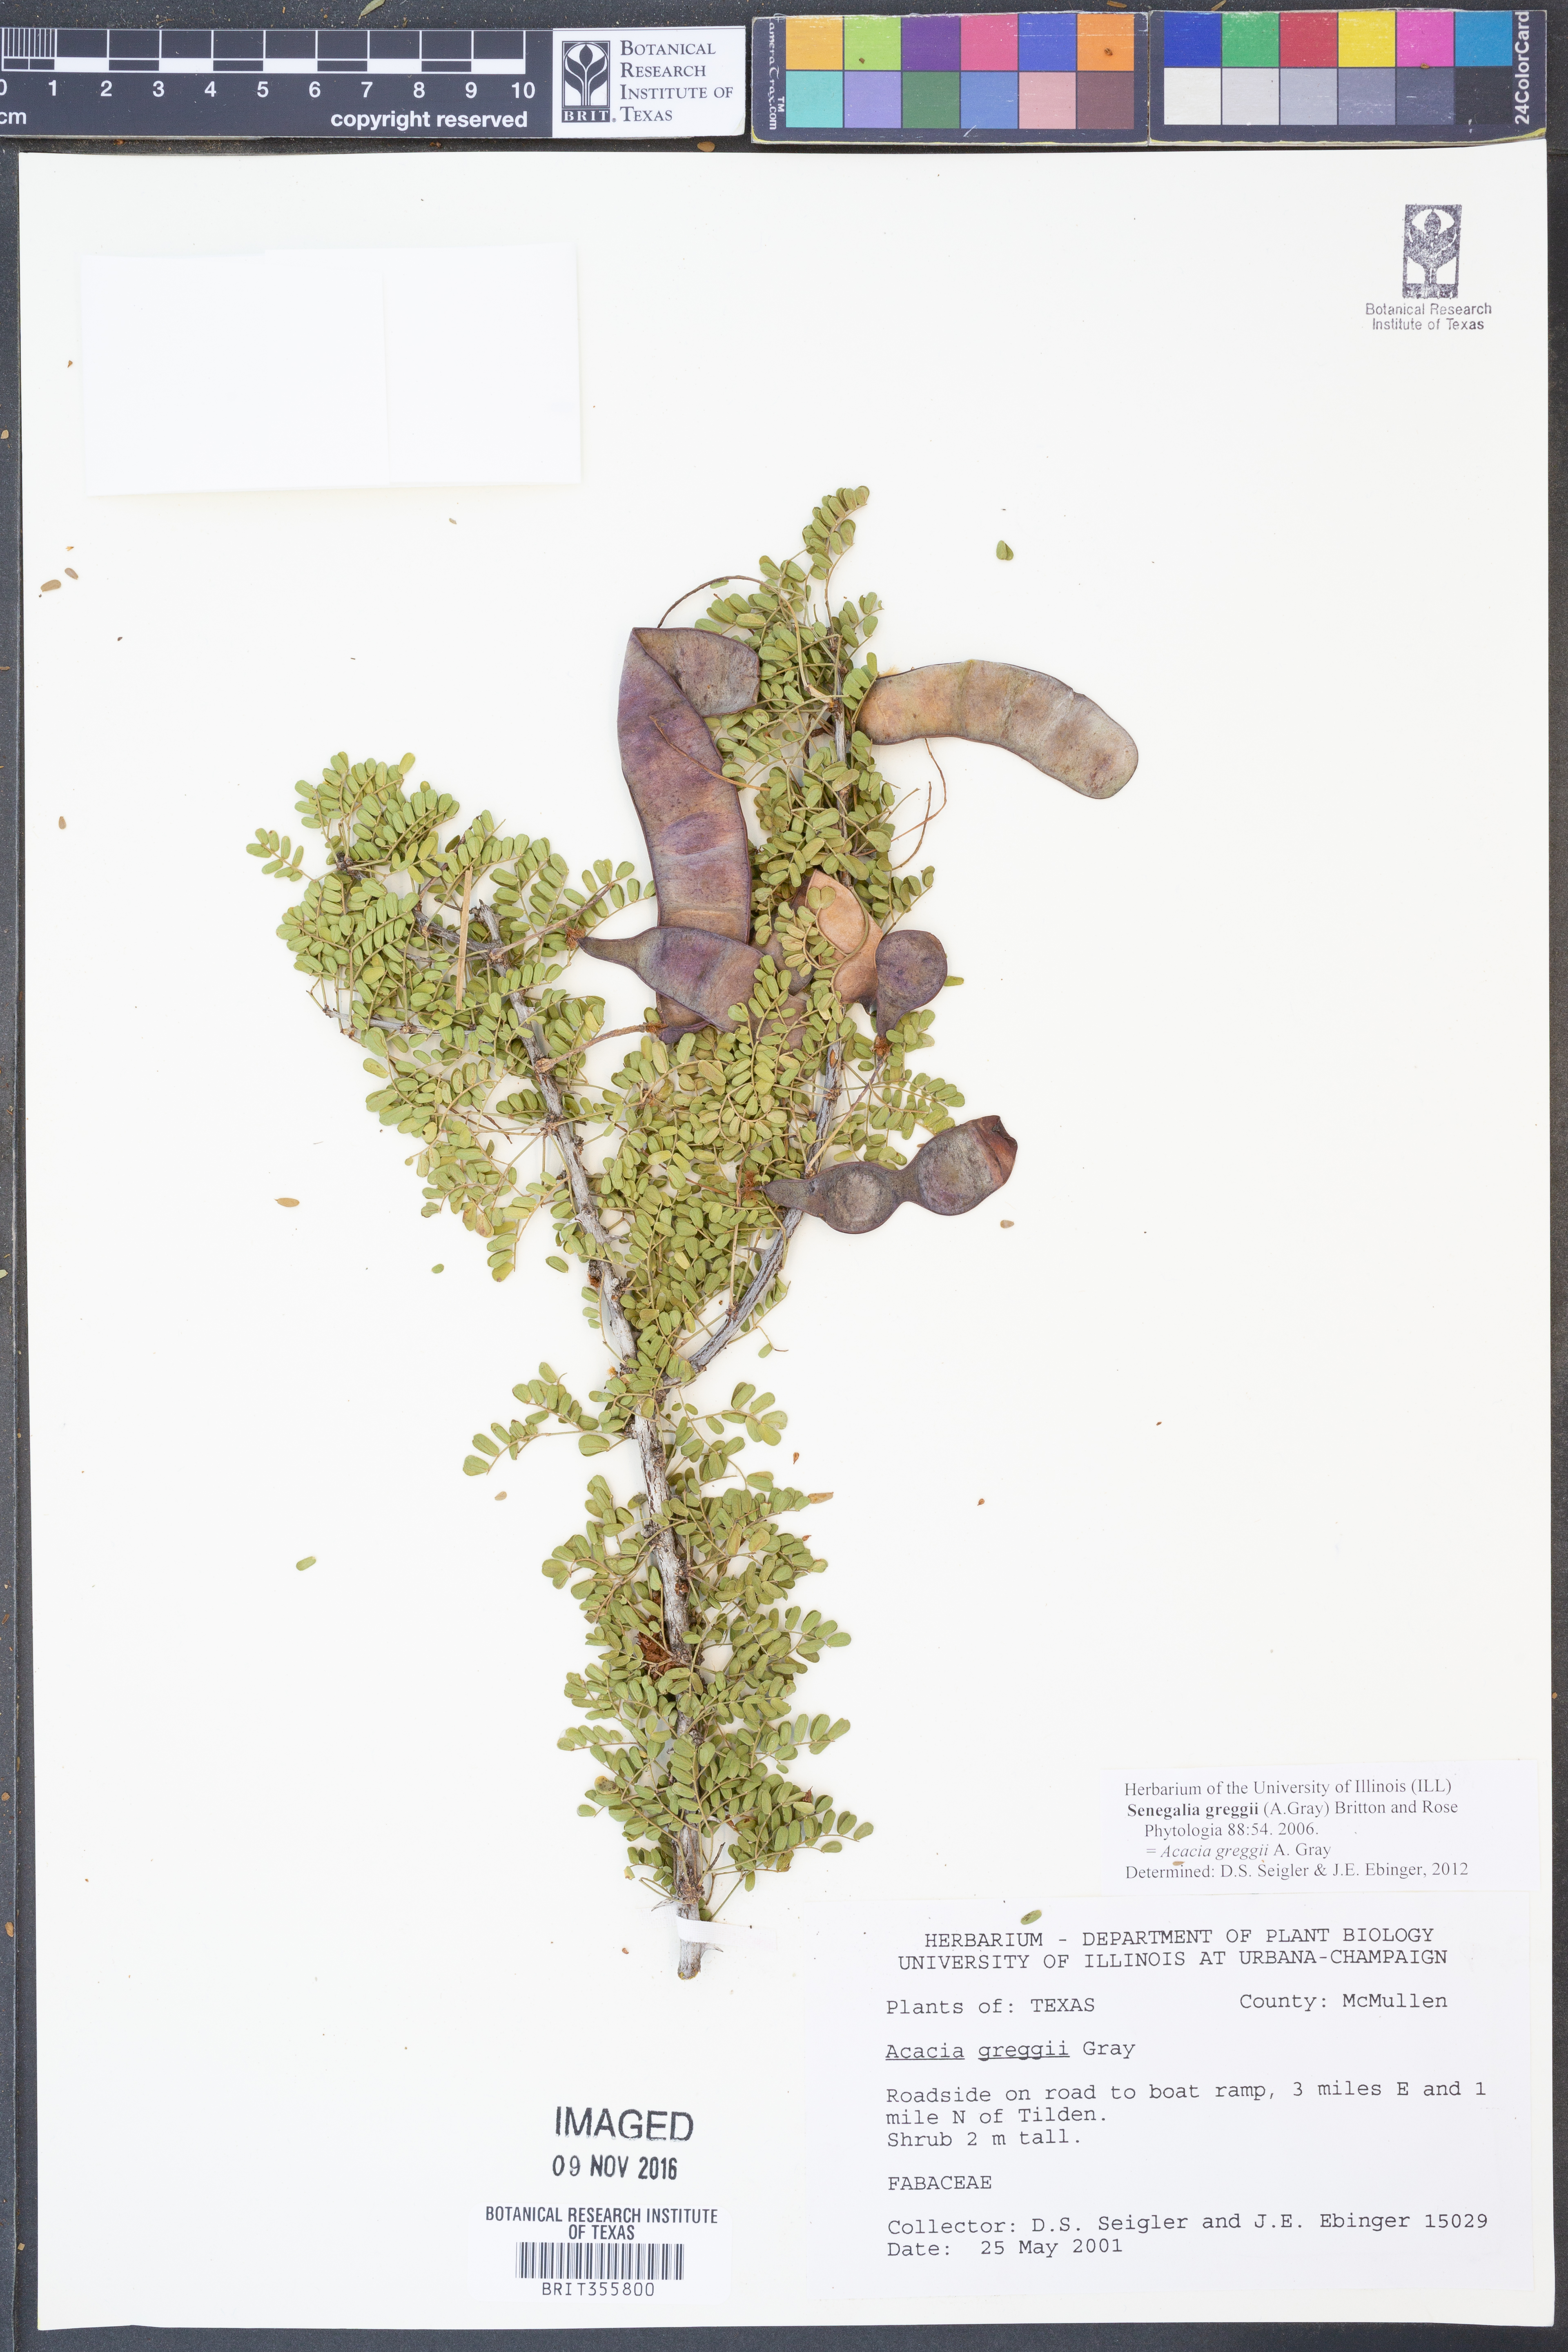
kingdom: Plantae
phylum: Tracheophyta
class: Magnoliopsida
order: Fabales
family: Fabaceae
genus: Senegalia
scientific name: Senegalia greggii
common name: Texas-mimosa
